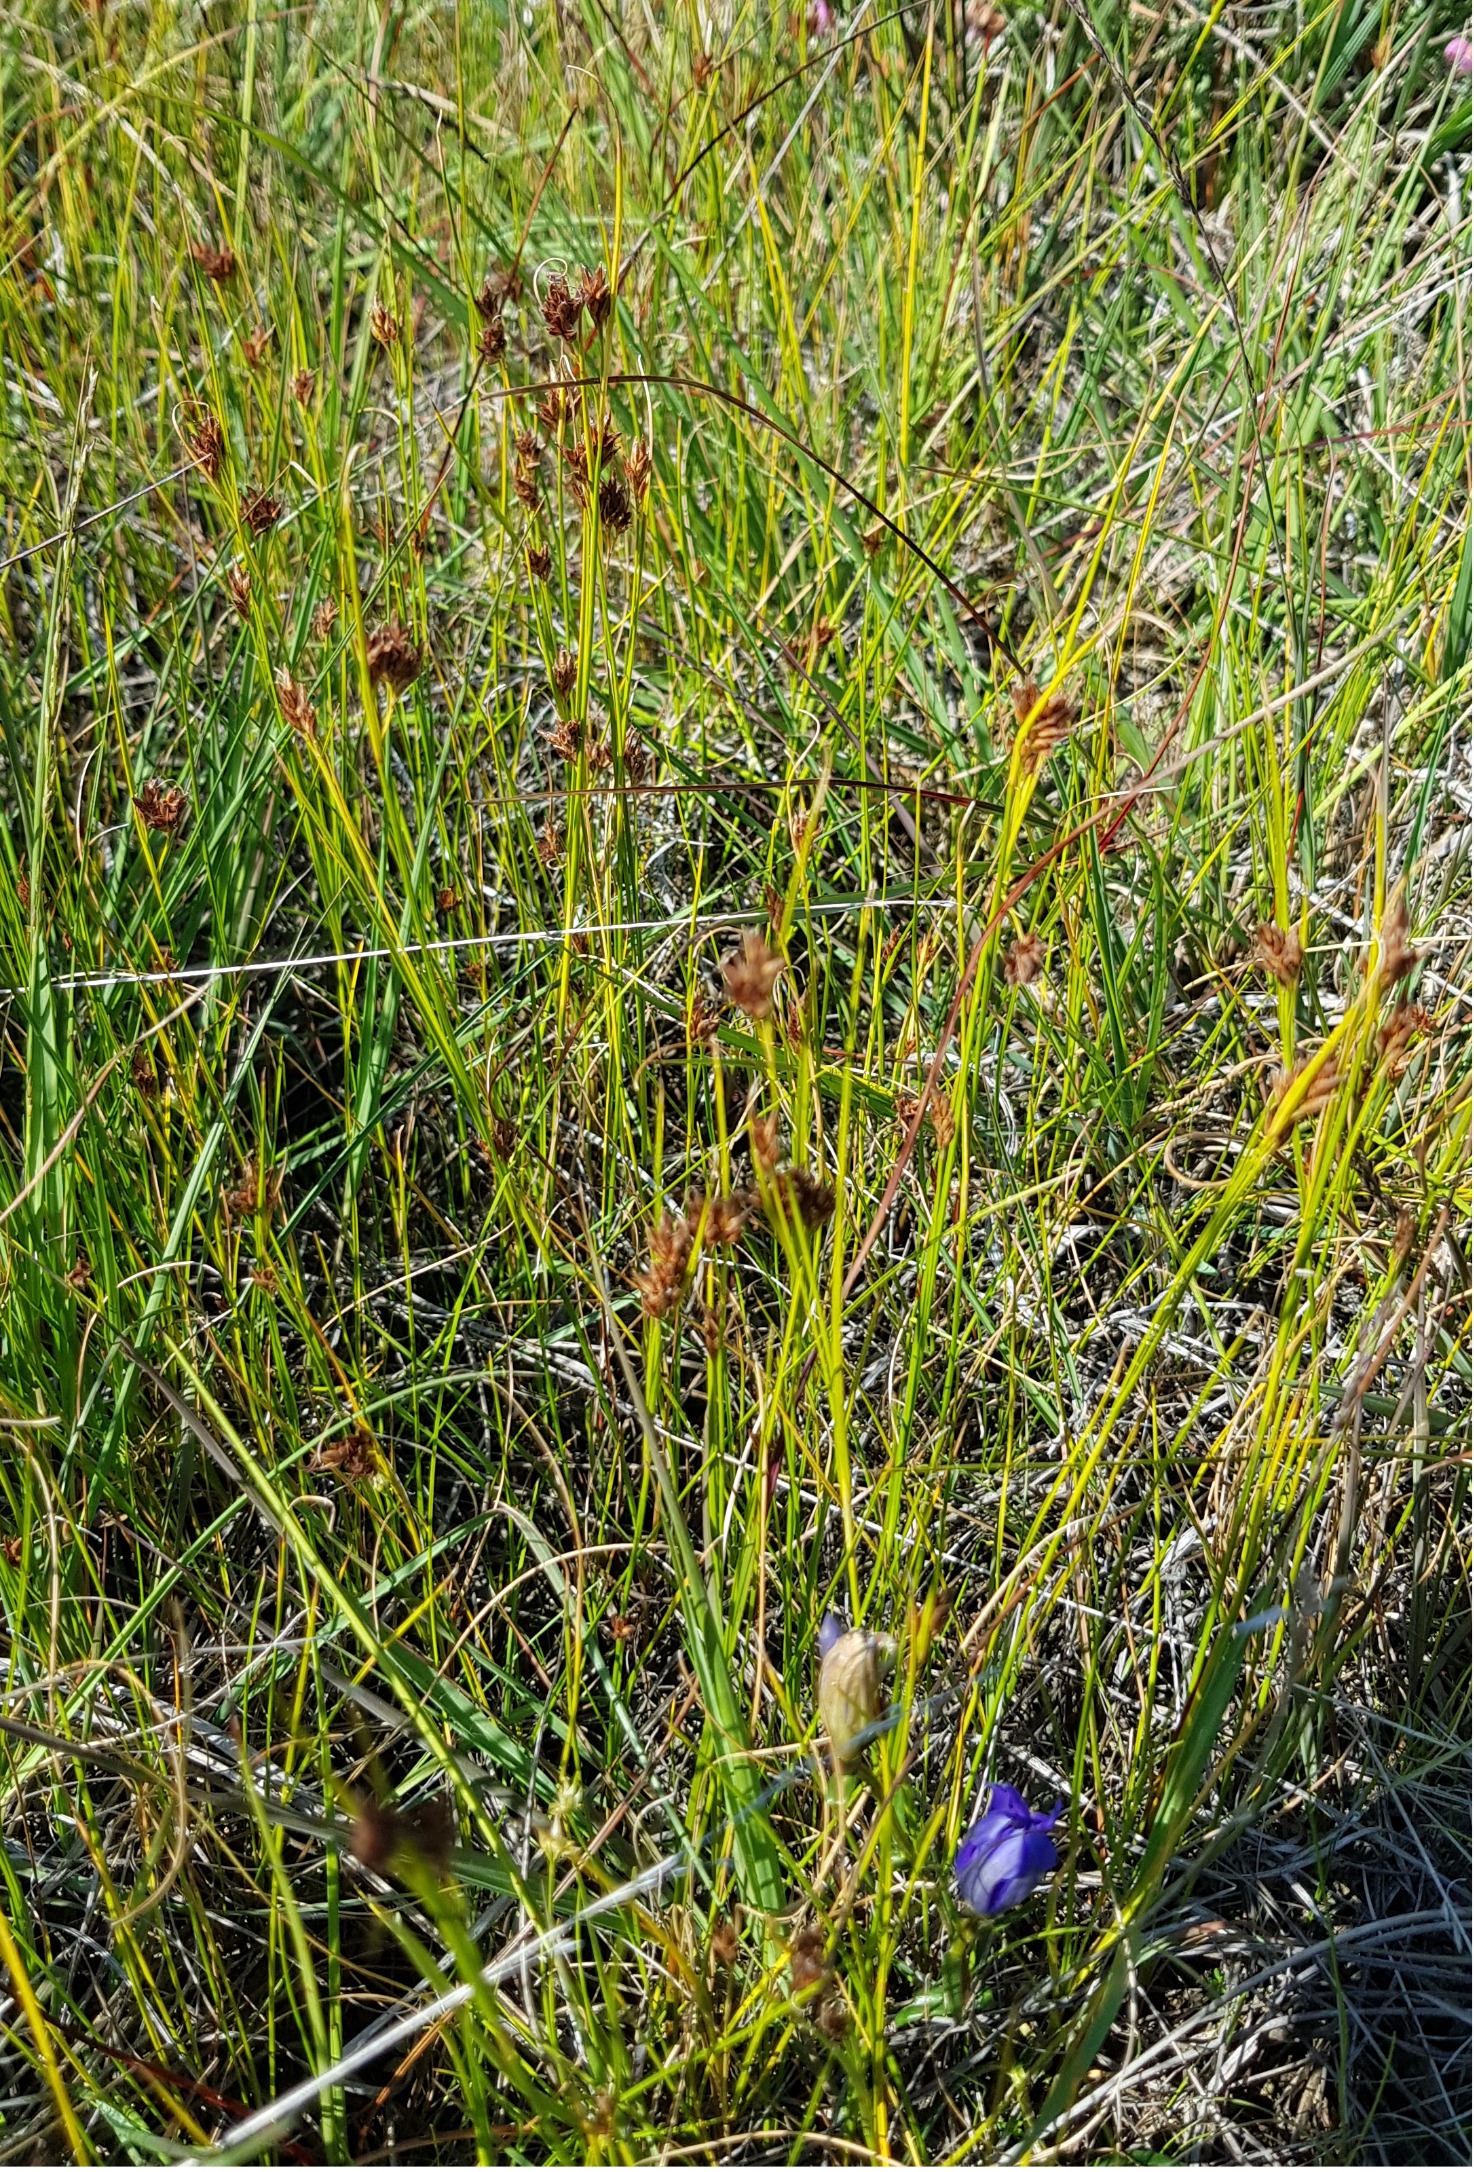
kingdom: Plantae
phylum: Tracheophyta
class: Liliopsida
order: Poales
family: Cyperaceae
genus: Rhynchospora
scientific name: Rhynchospora fusca
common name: Brun næbfrø
